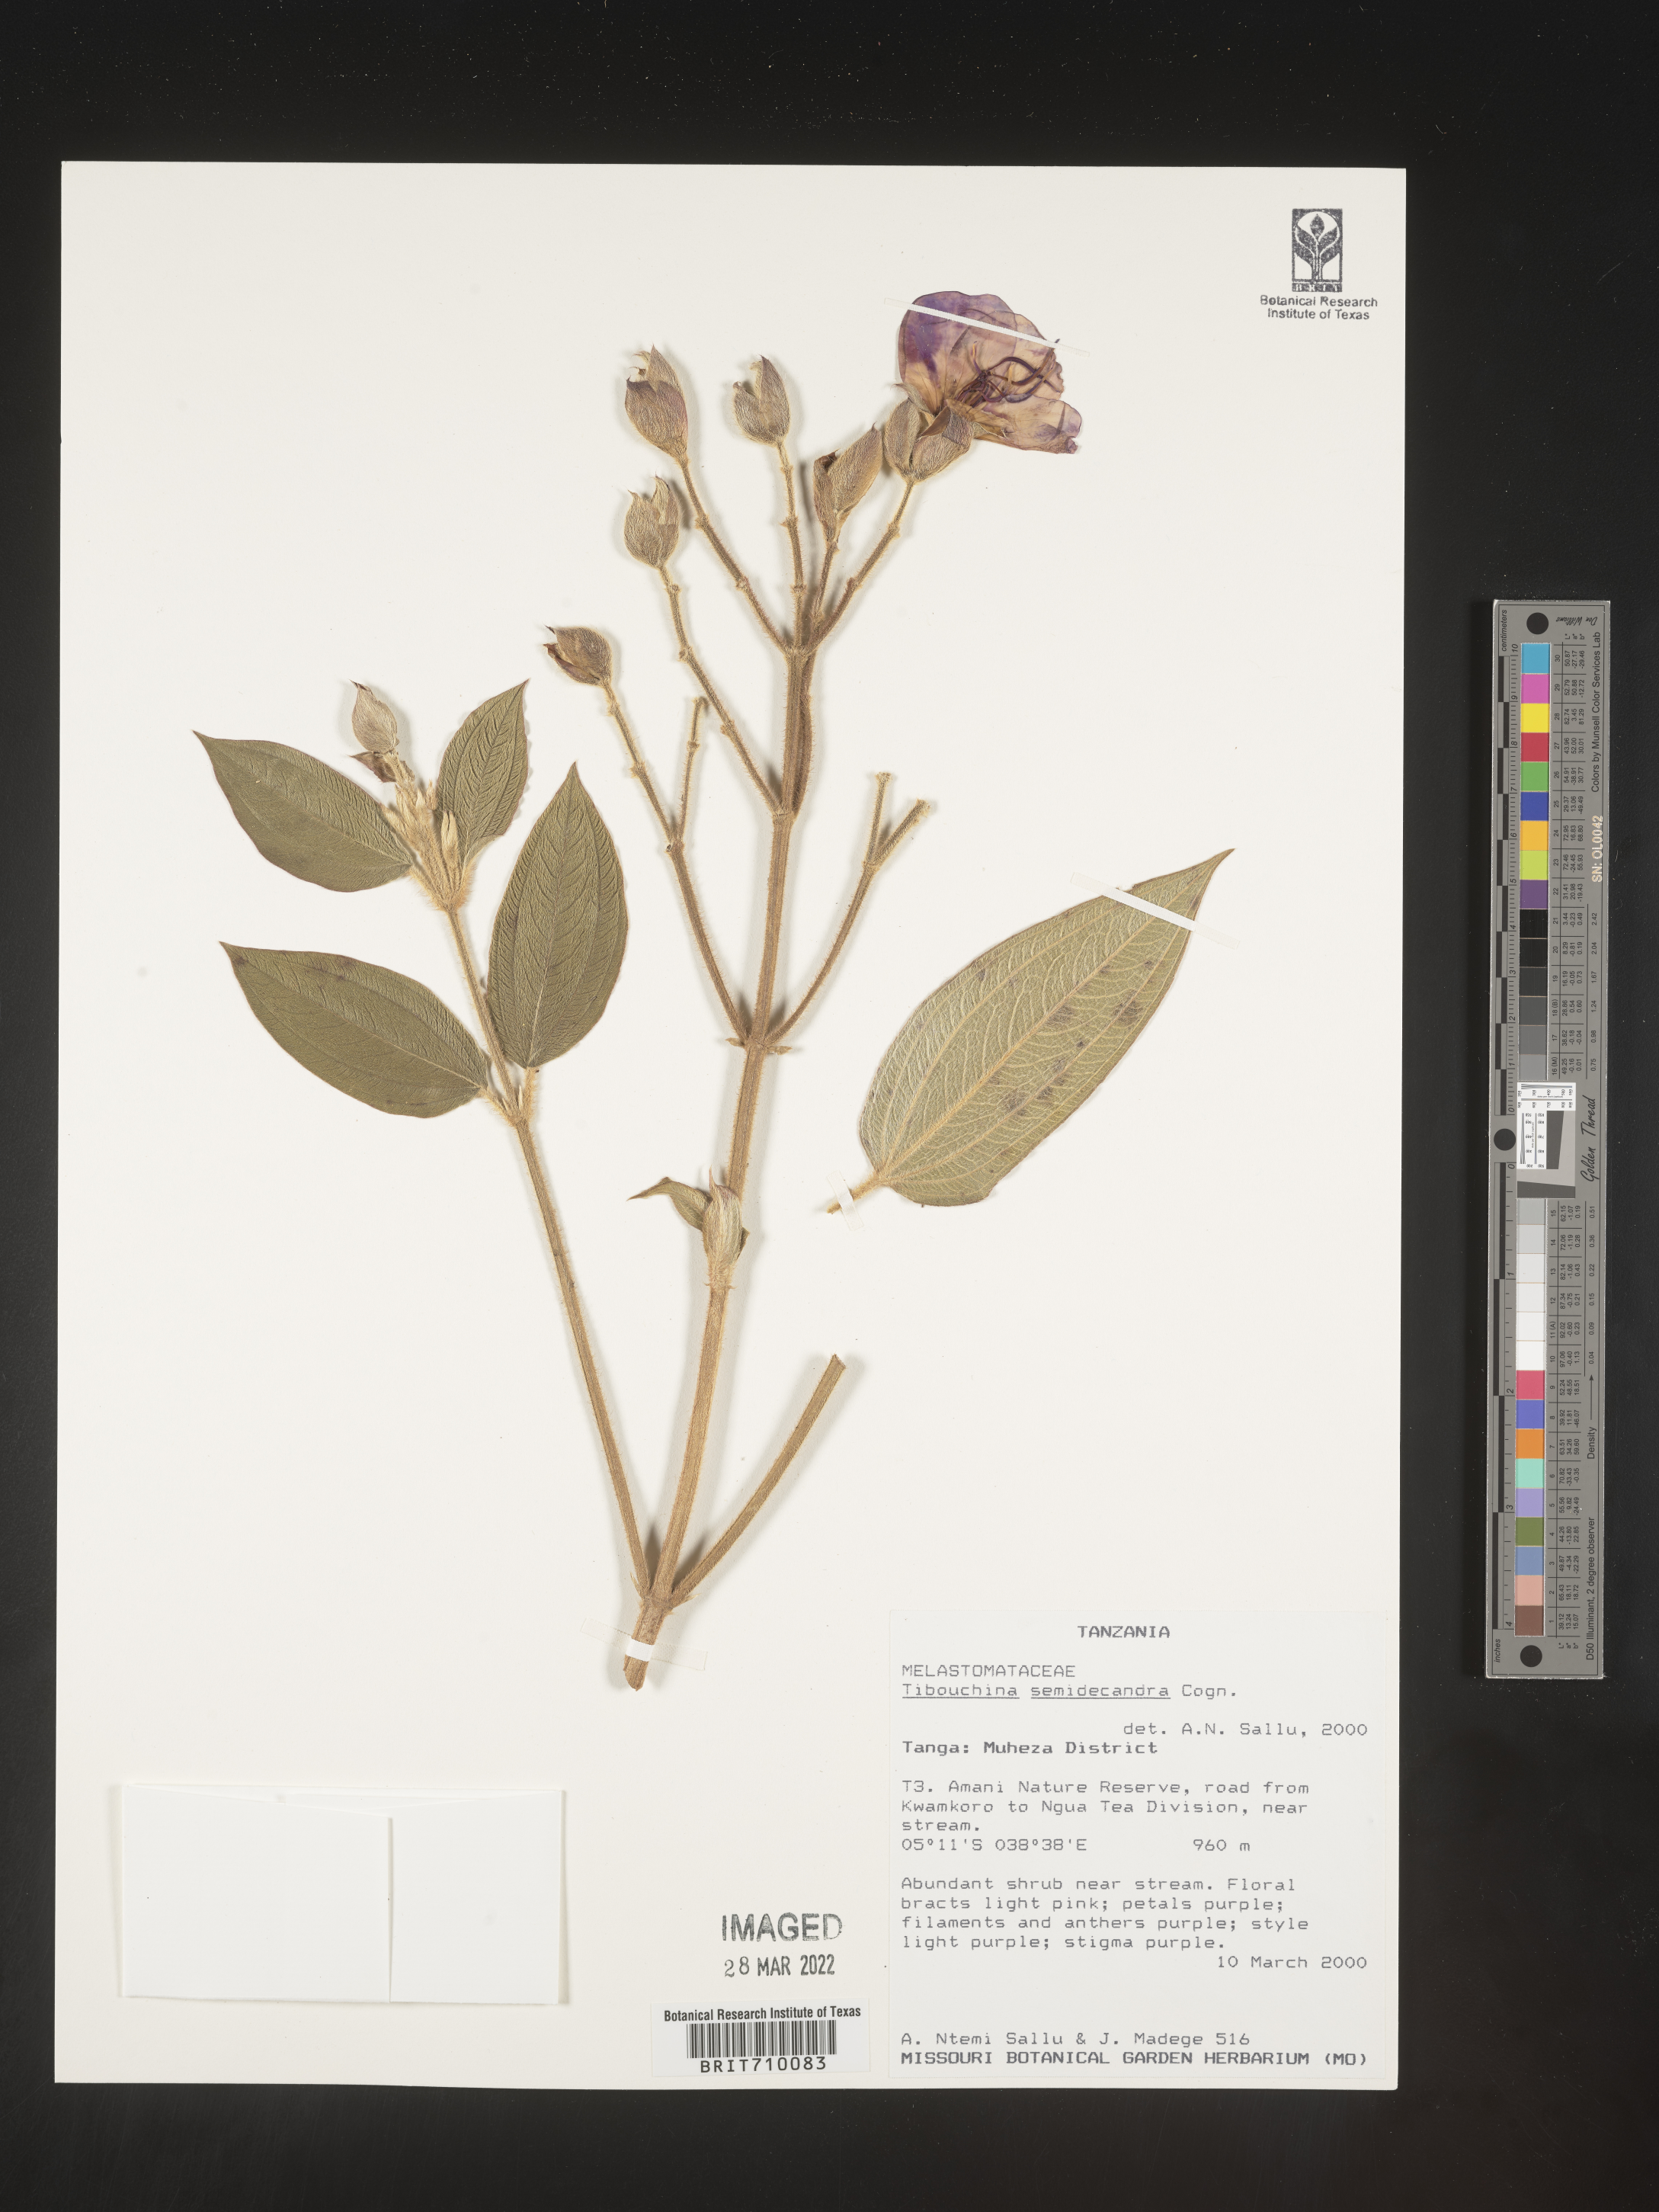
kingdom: Plantae
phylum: Tracheophyta
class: Magnoliopsida
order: Myrtales
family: Melastomataceae
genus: Tibouchina
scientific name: Tibouchina
